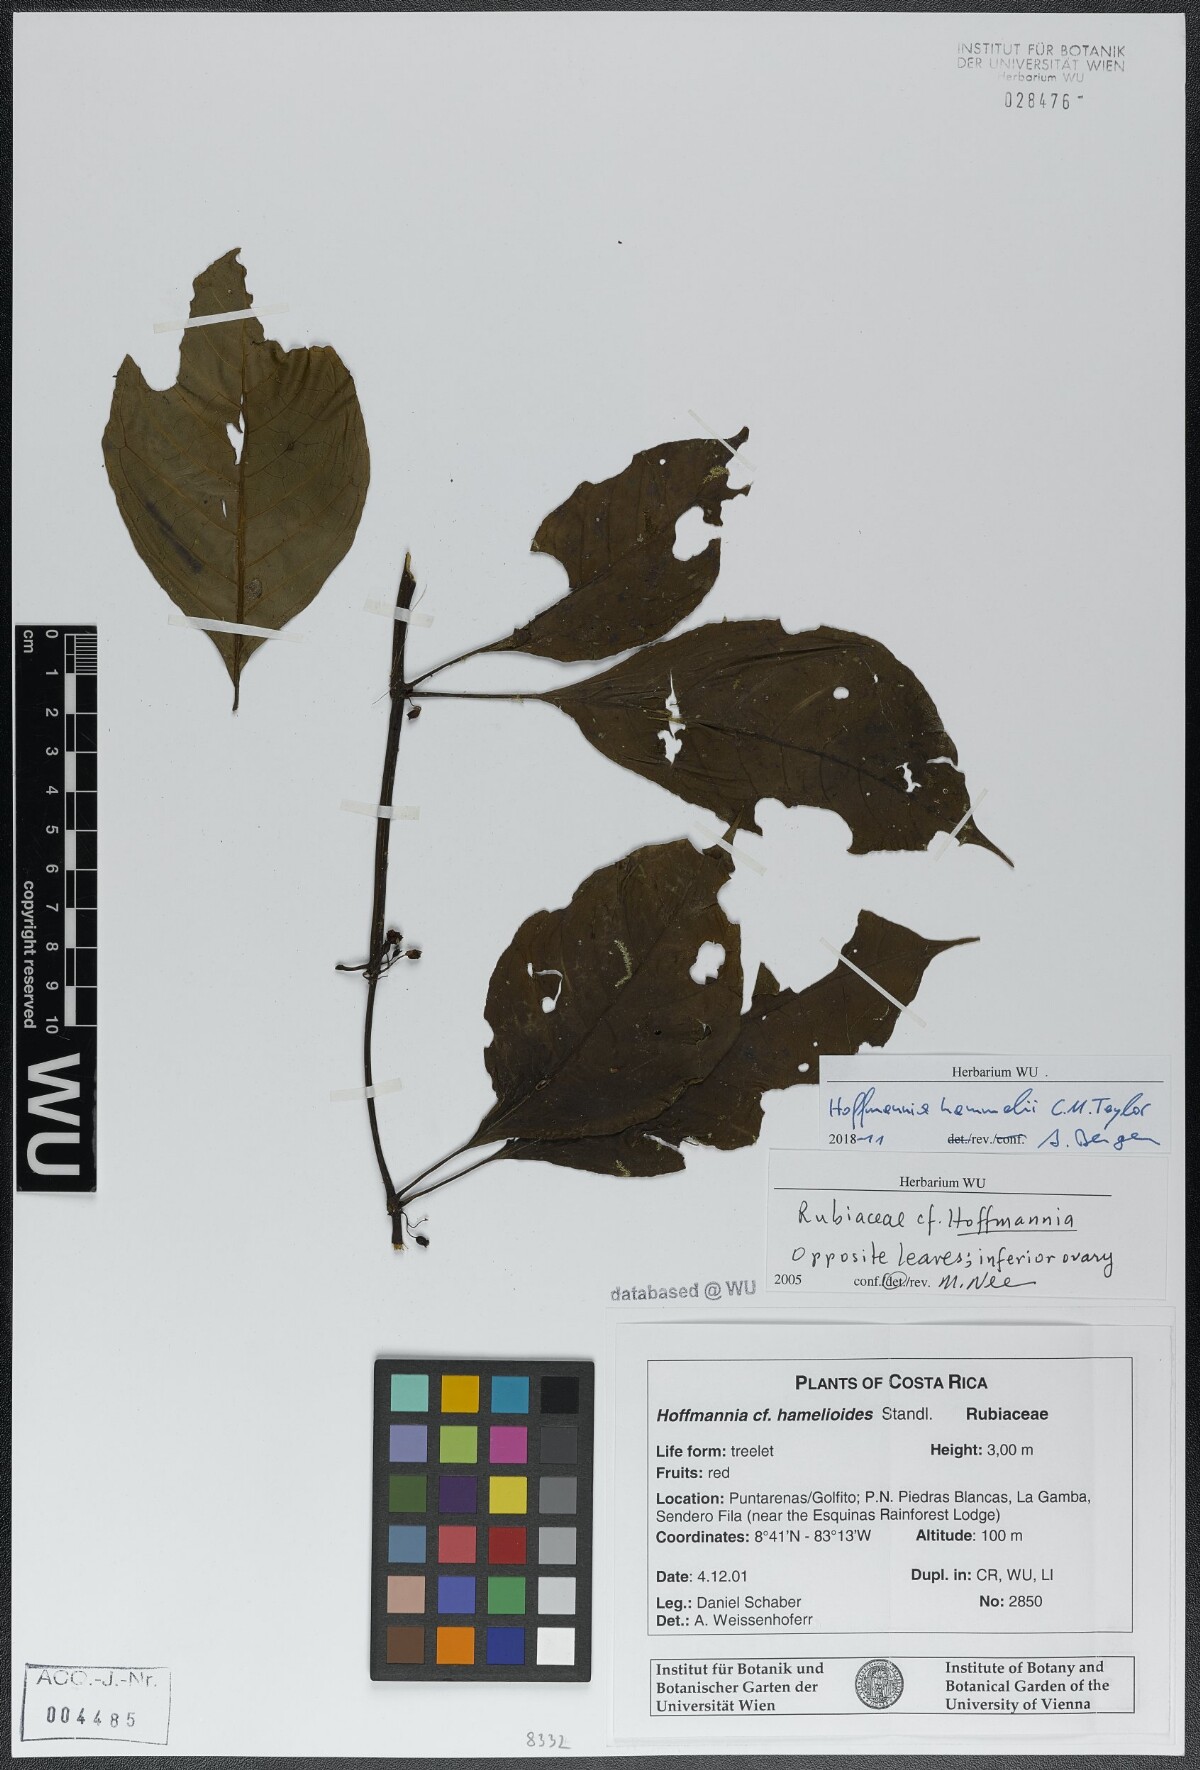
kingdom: Plantae
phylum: Tracheophyta
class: Magnoliopsida
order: Gentianales
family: Rubiaceae
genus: Hoffmannia
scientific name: Hoffmannia hammelii
